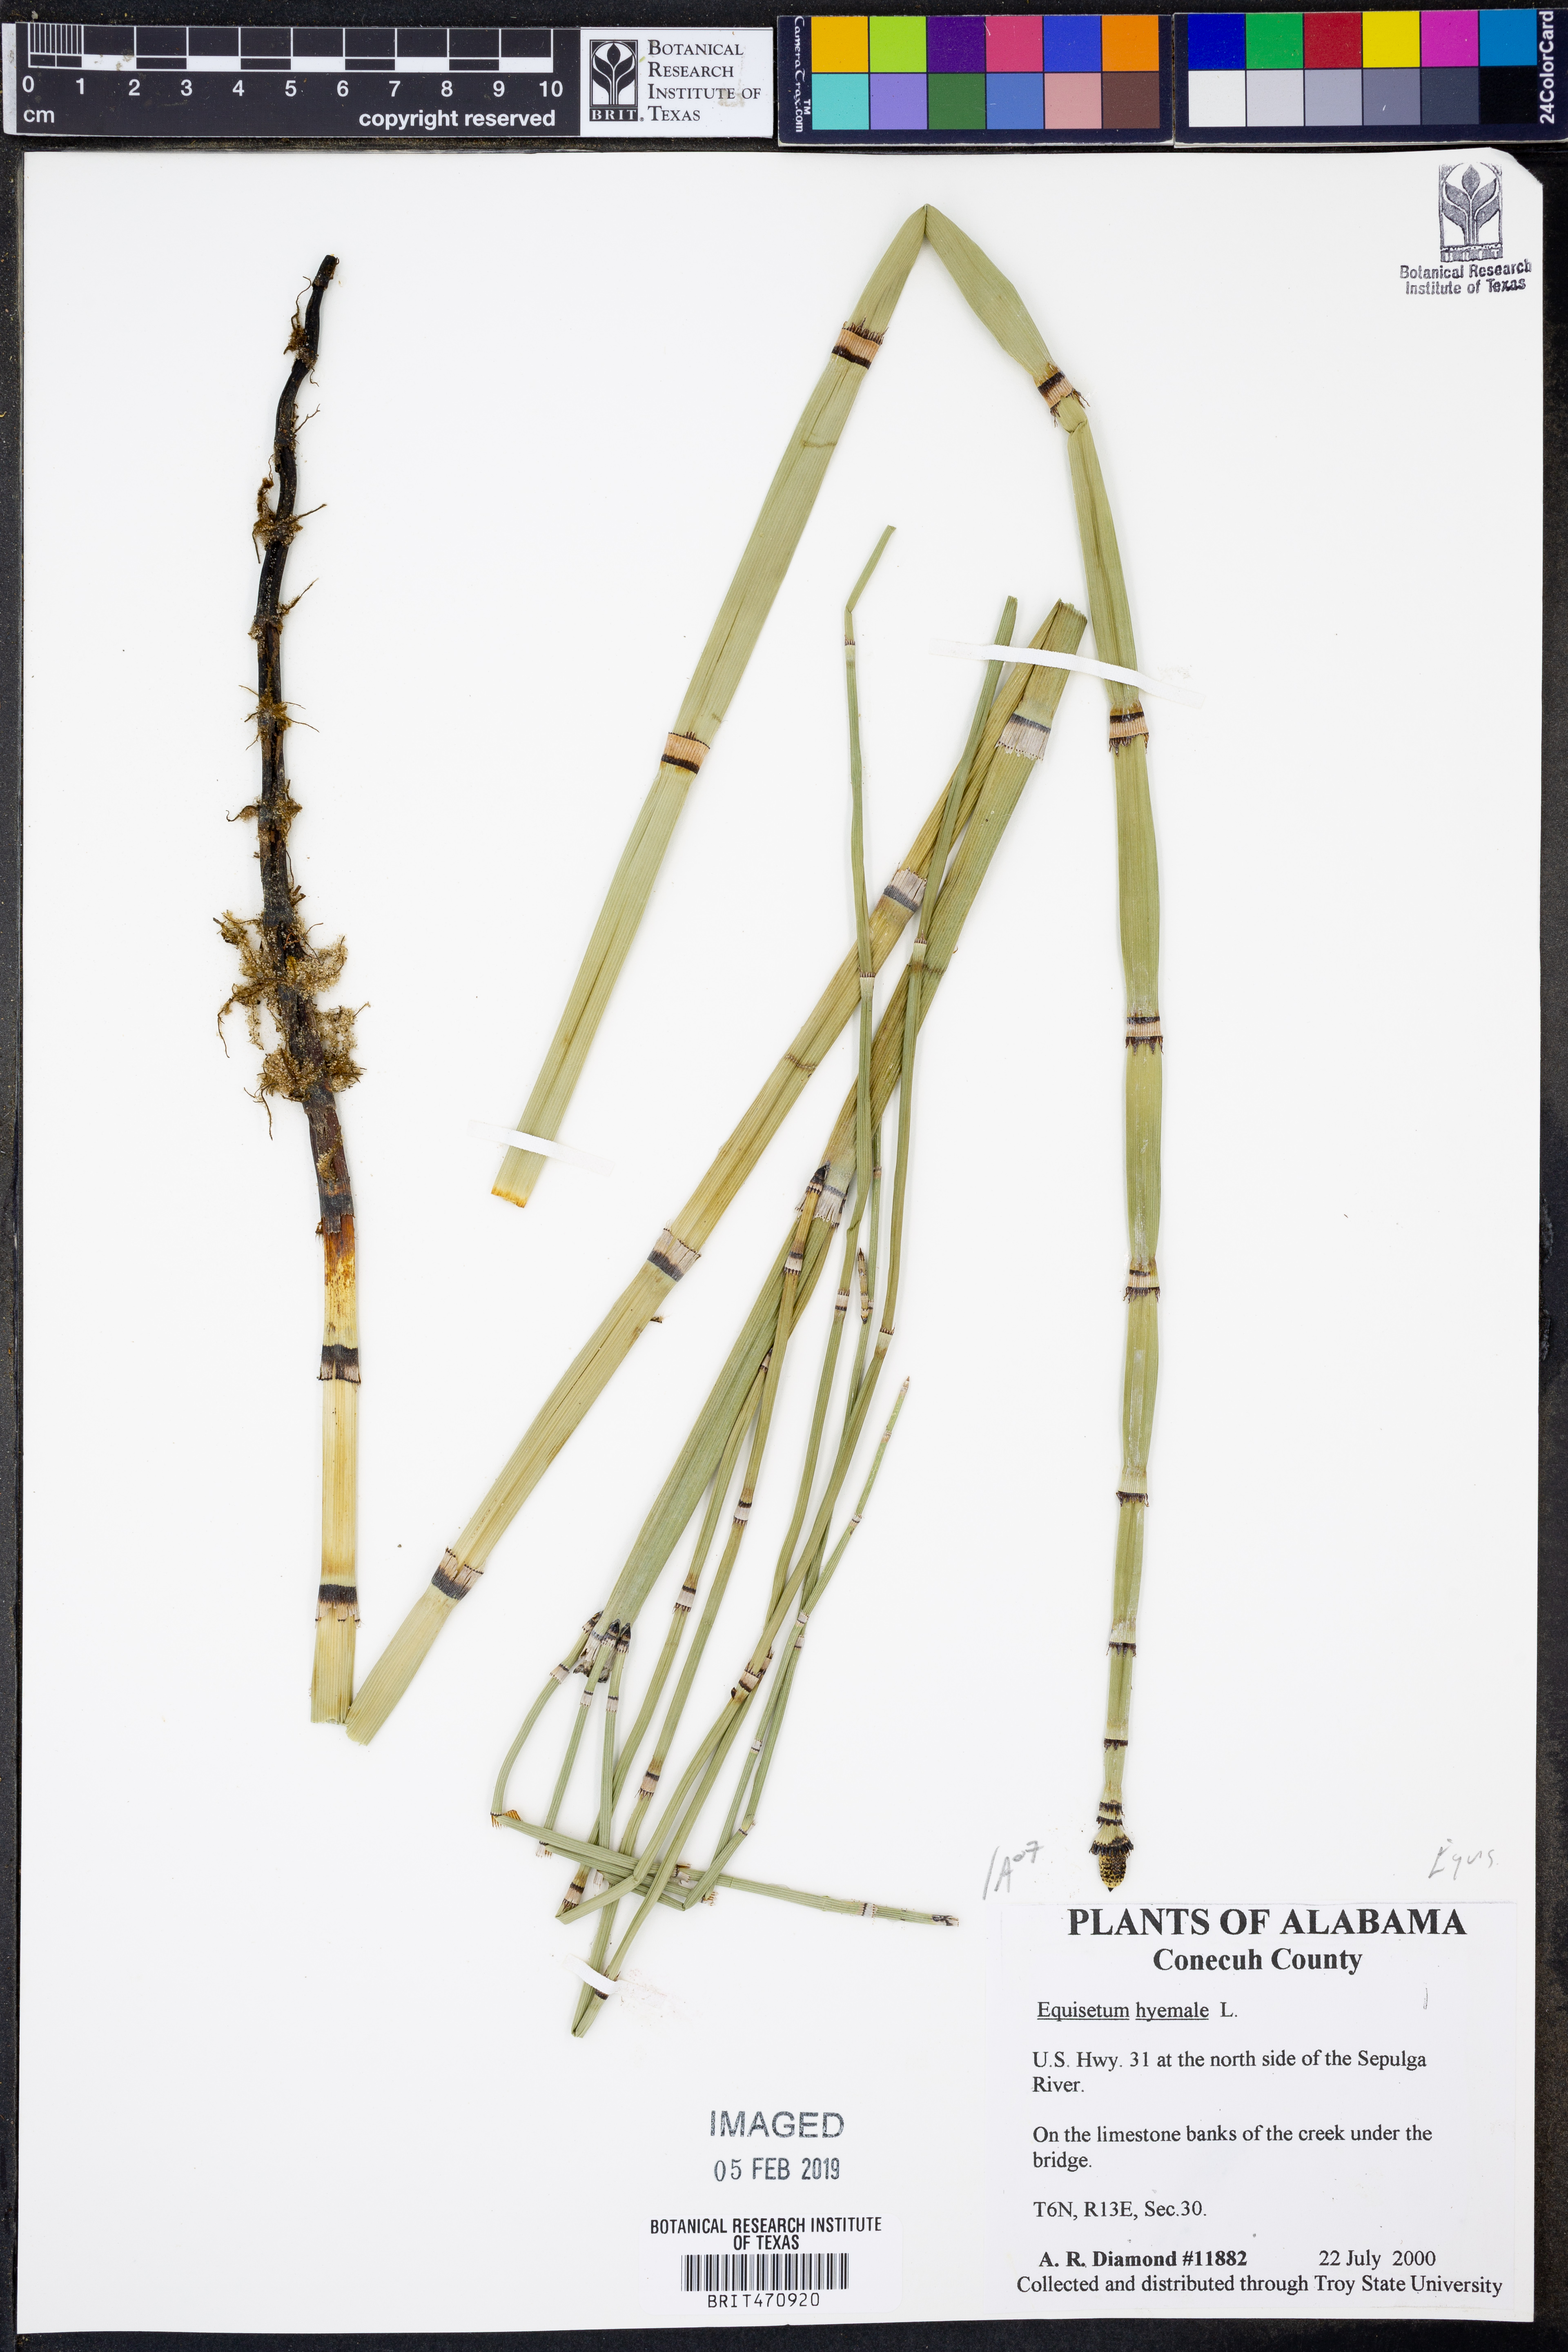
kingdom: Plantae
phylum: Tracheophyta
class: Polypodiopsida
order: Equisetales
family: Equisetaceae
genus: Equisetum
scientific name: Equisetum hyemale
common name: Rough horsetail
